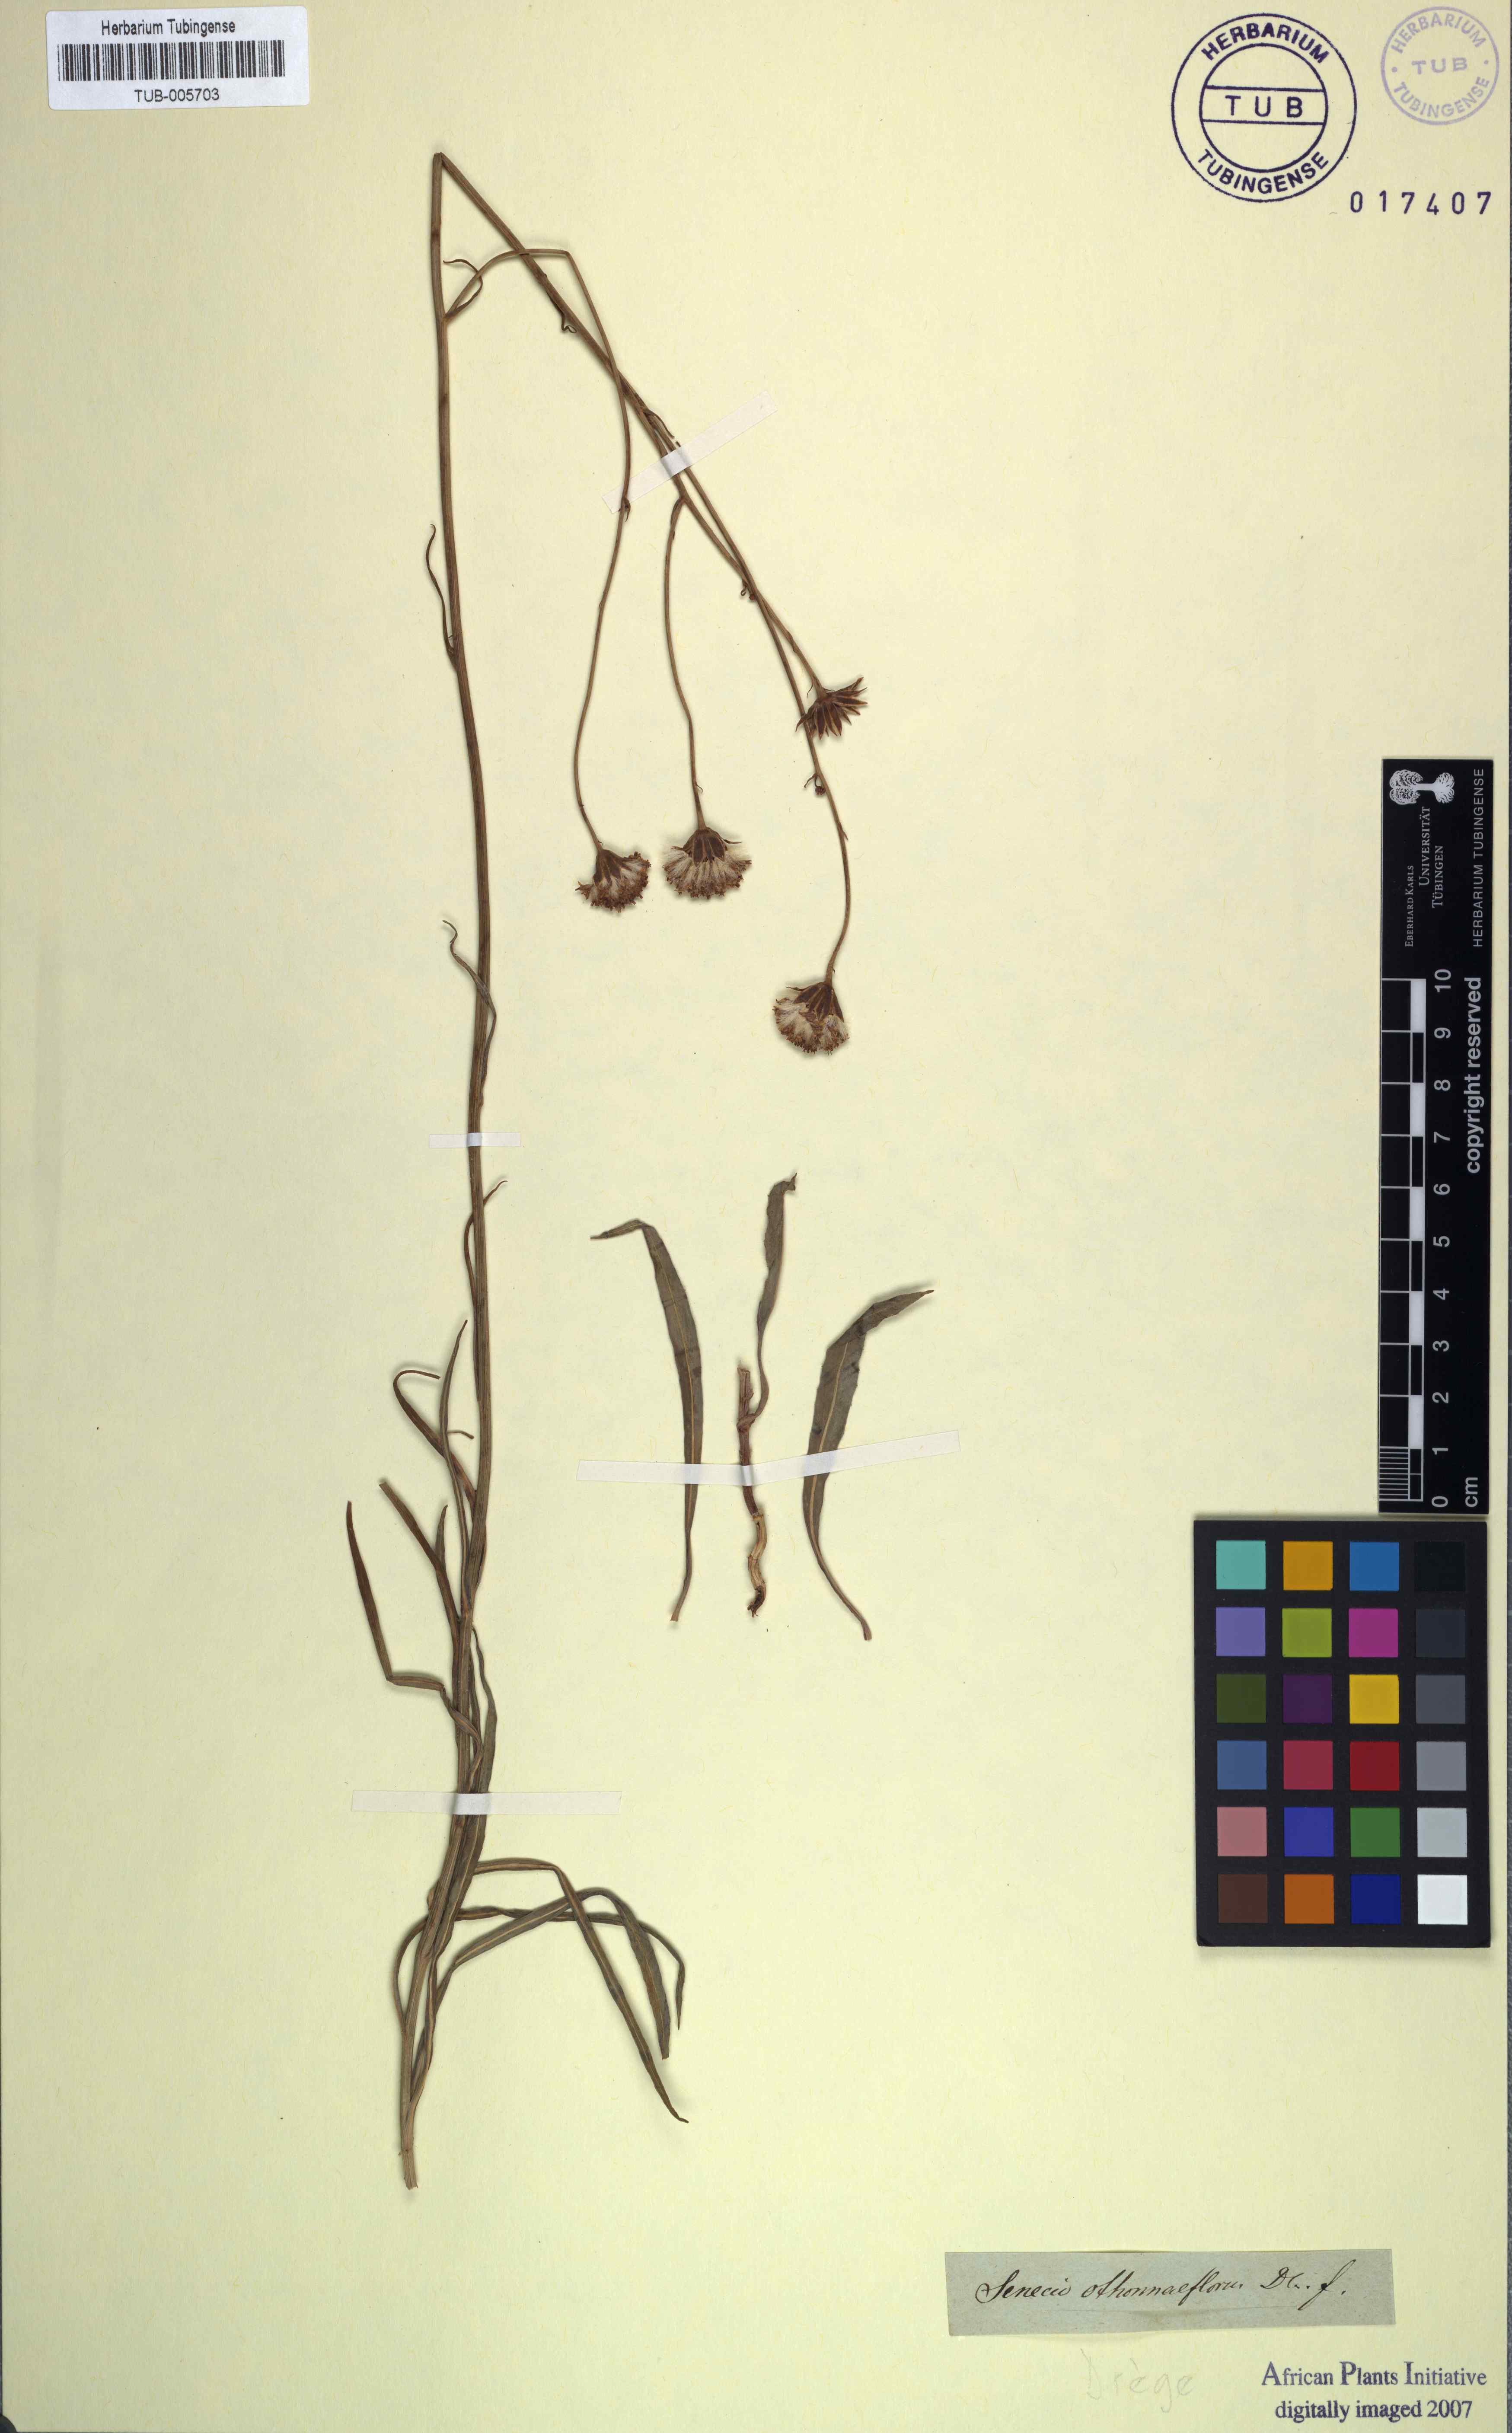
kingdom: Plantae
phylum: Tracheophyta
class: Magnoliopsida
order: Asterales
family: Asteraceae
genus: Senecio
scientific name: Senecio othonniflorus
